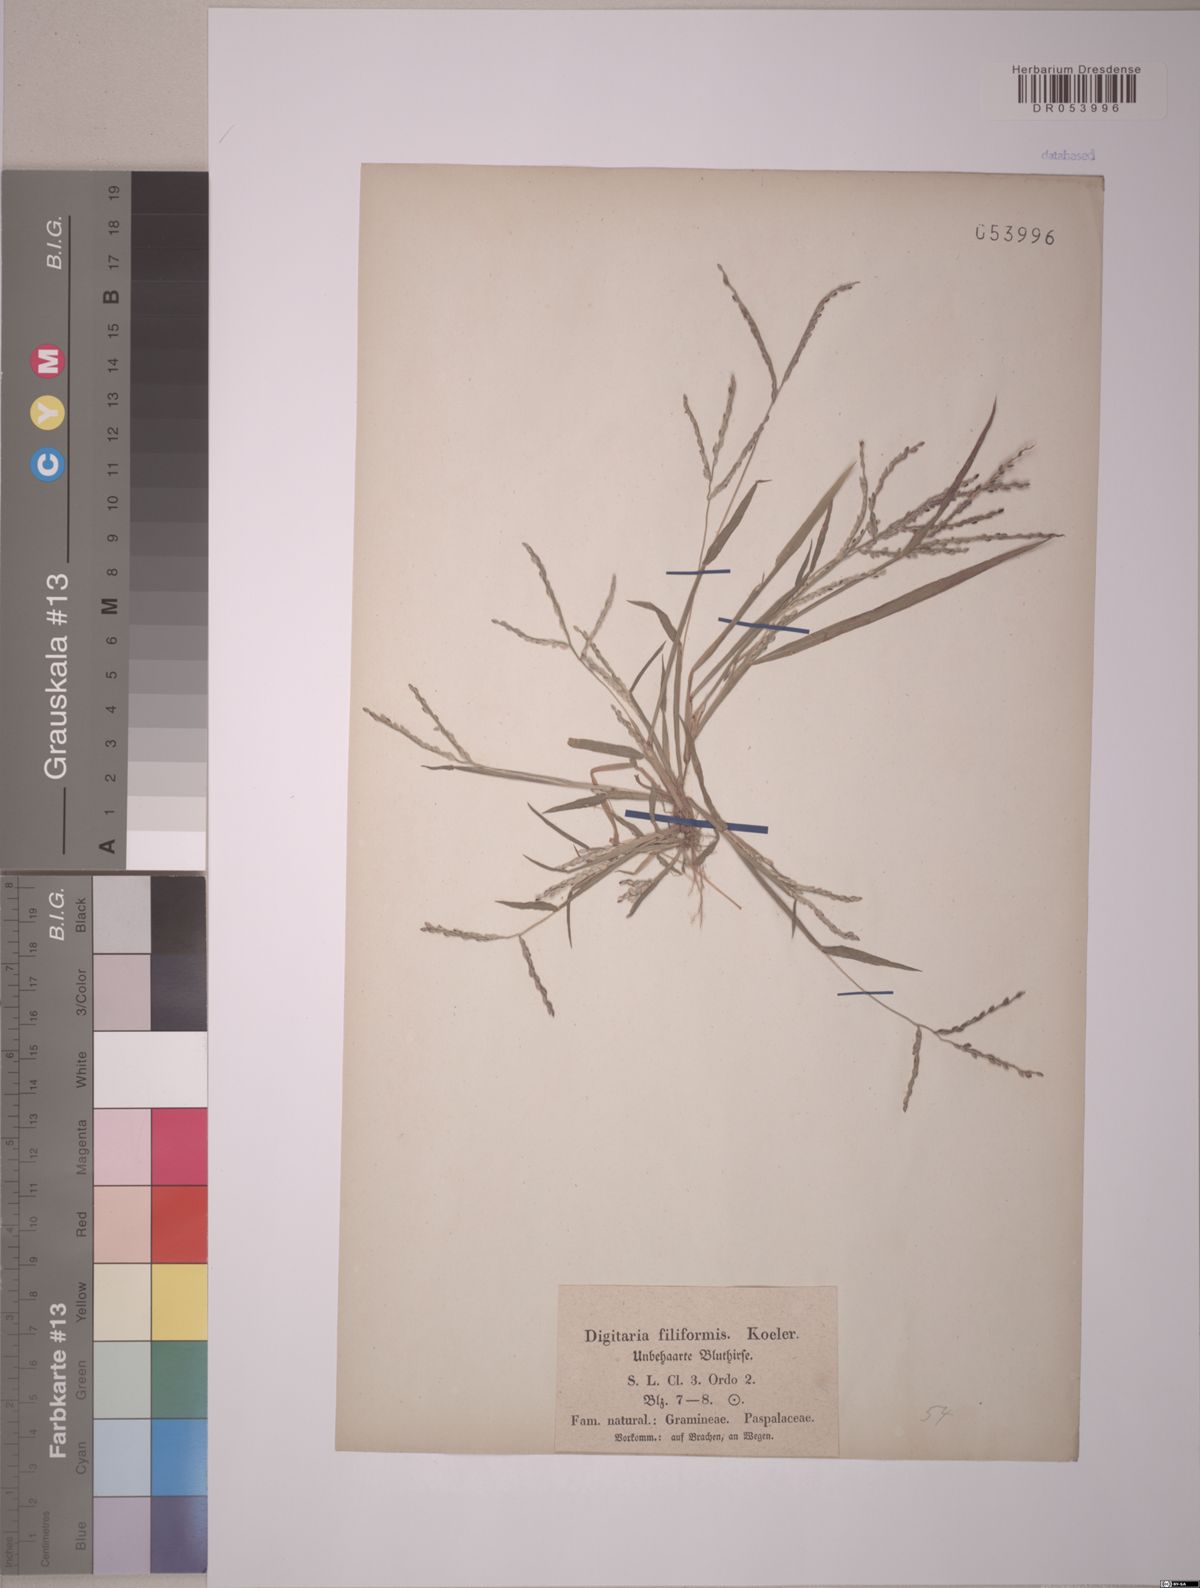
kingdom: Plantae
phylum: Tracheophyta
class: Liliopsida
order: Poales
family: Poaceae
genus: Digitaria
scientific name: Digitaria filiformis
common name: Slender crabgrass
